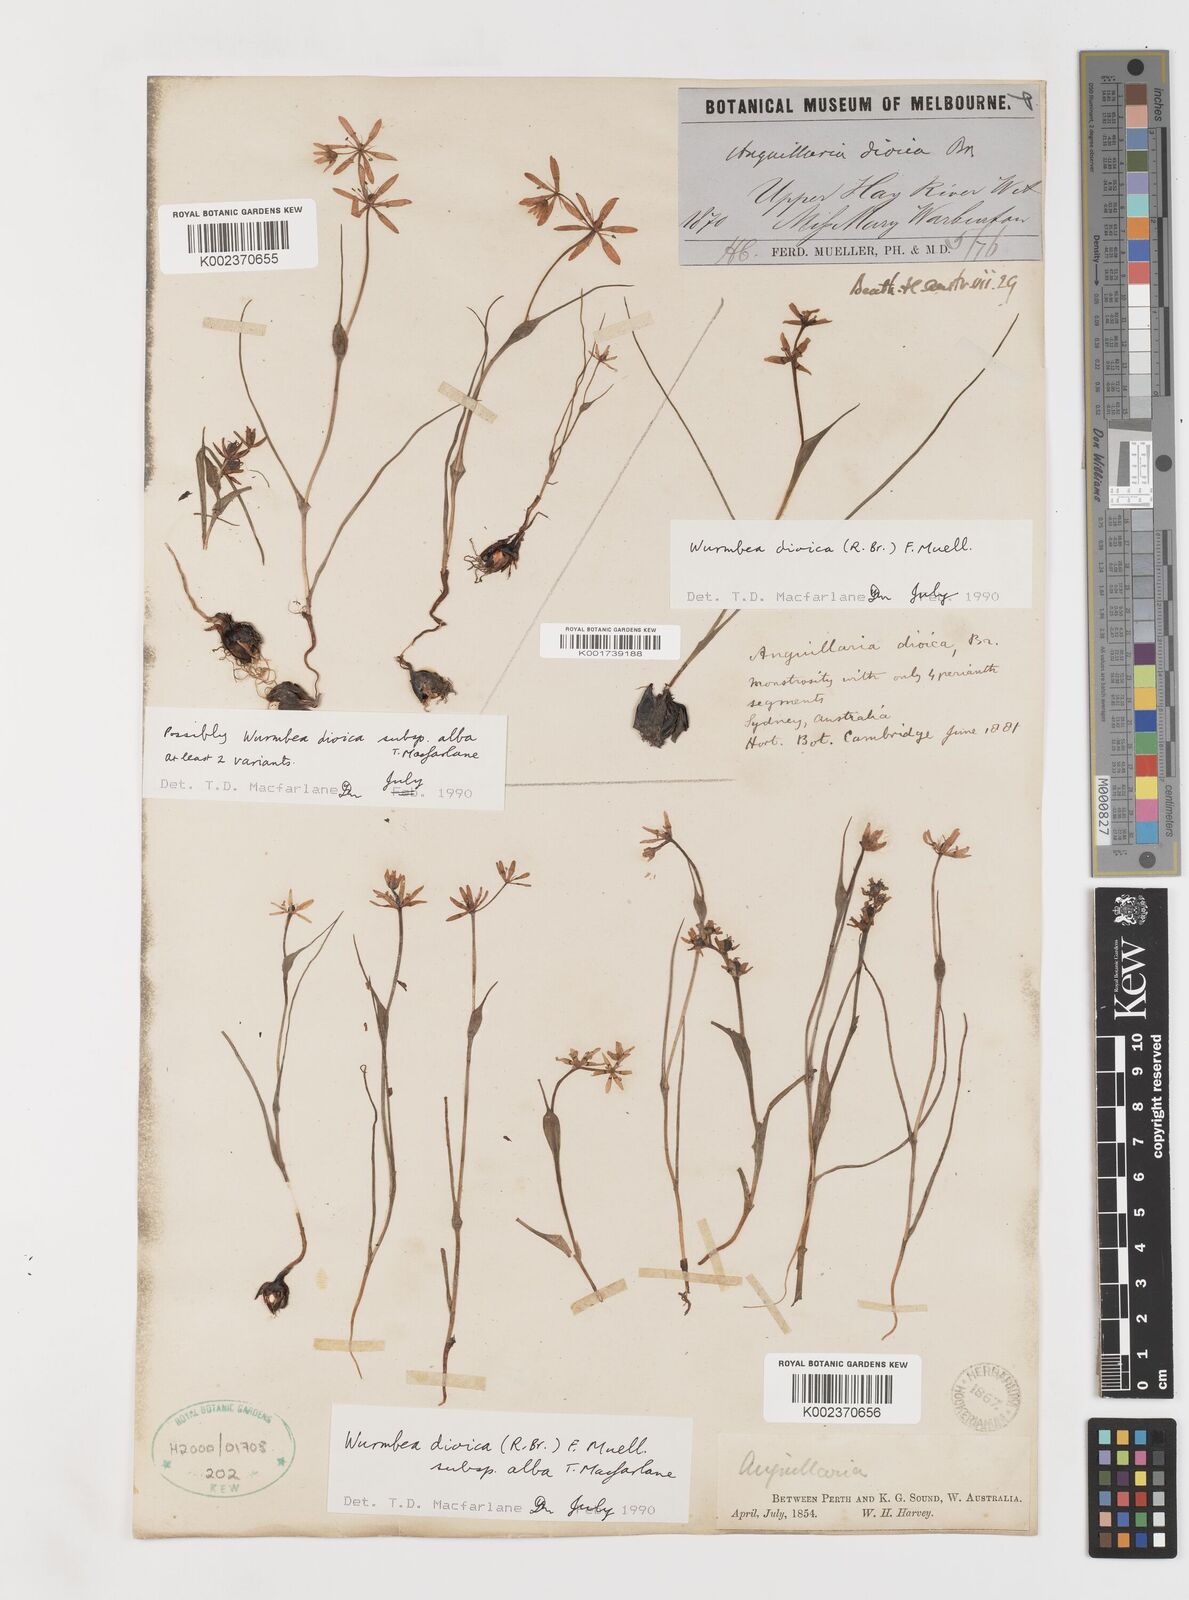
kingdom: Plantae
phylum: Tracheophyta
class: Liliopsida
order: Liliales
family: Colchicaceae
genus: Wurmbea
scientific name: Wurmbea dioica
